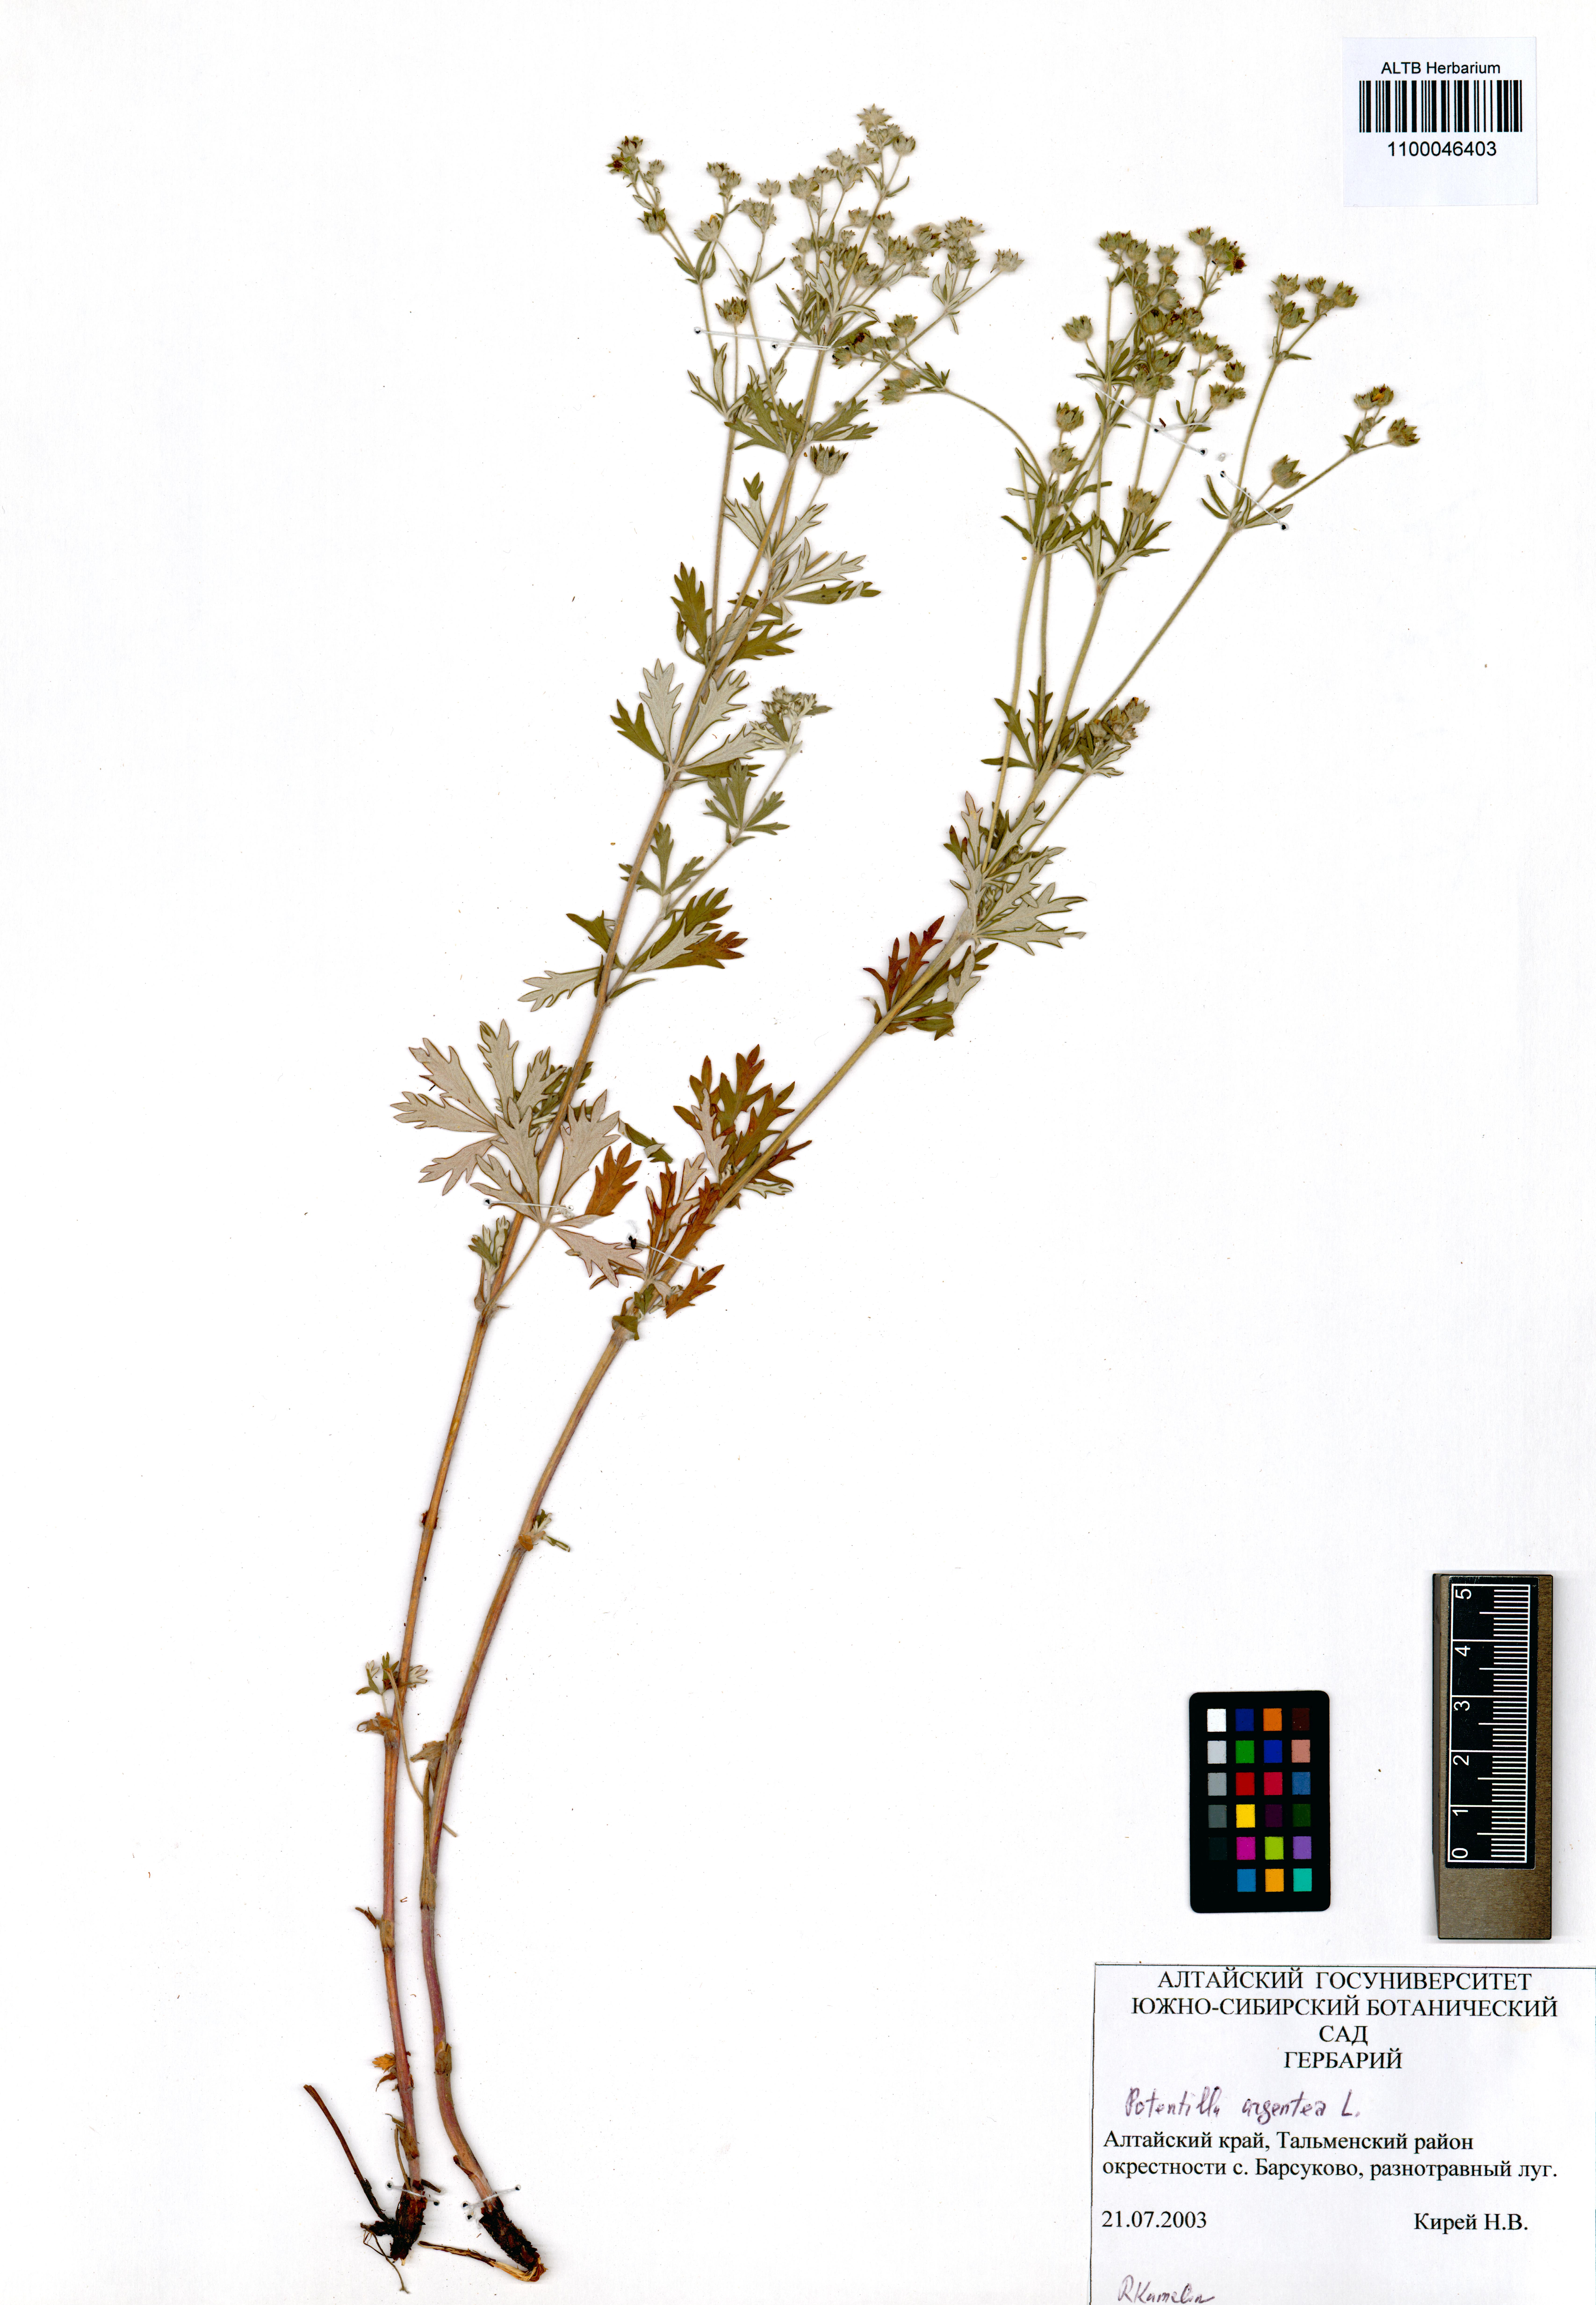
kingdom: Plantae
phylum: Tracheophyta
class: Magnoliopsida
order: Rosales
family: Rosaceae
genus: Potentilla
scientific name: Potentilla argentea
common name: Hoary cinquefoil
